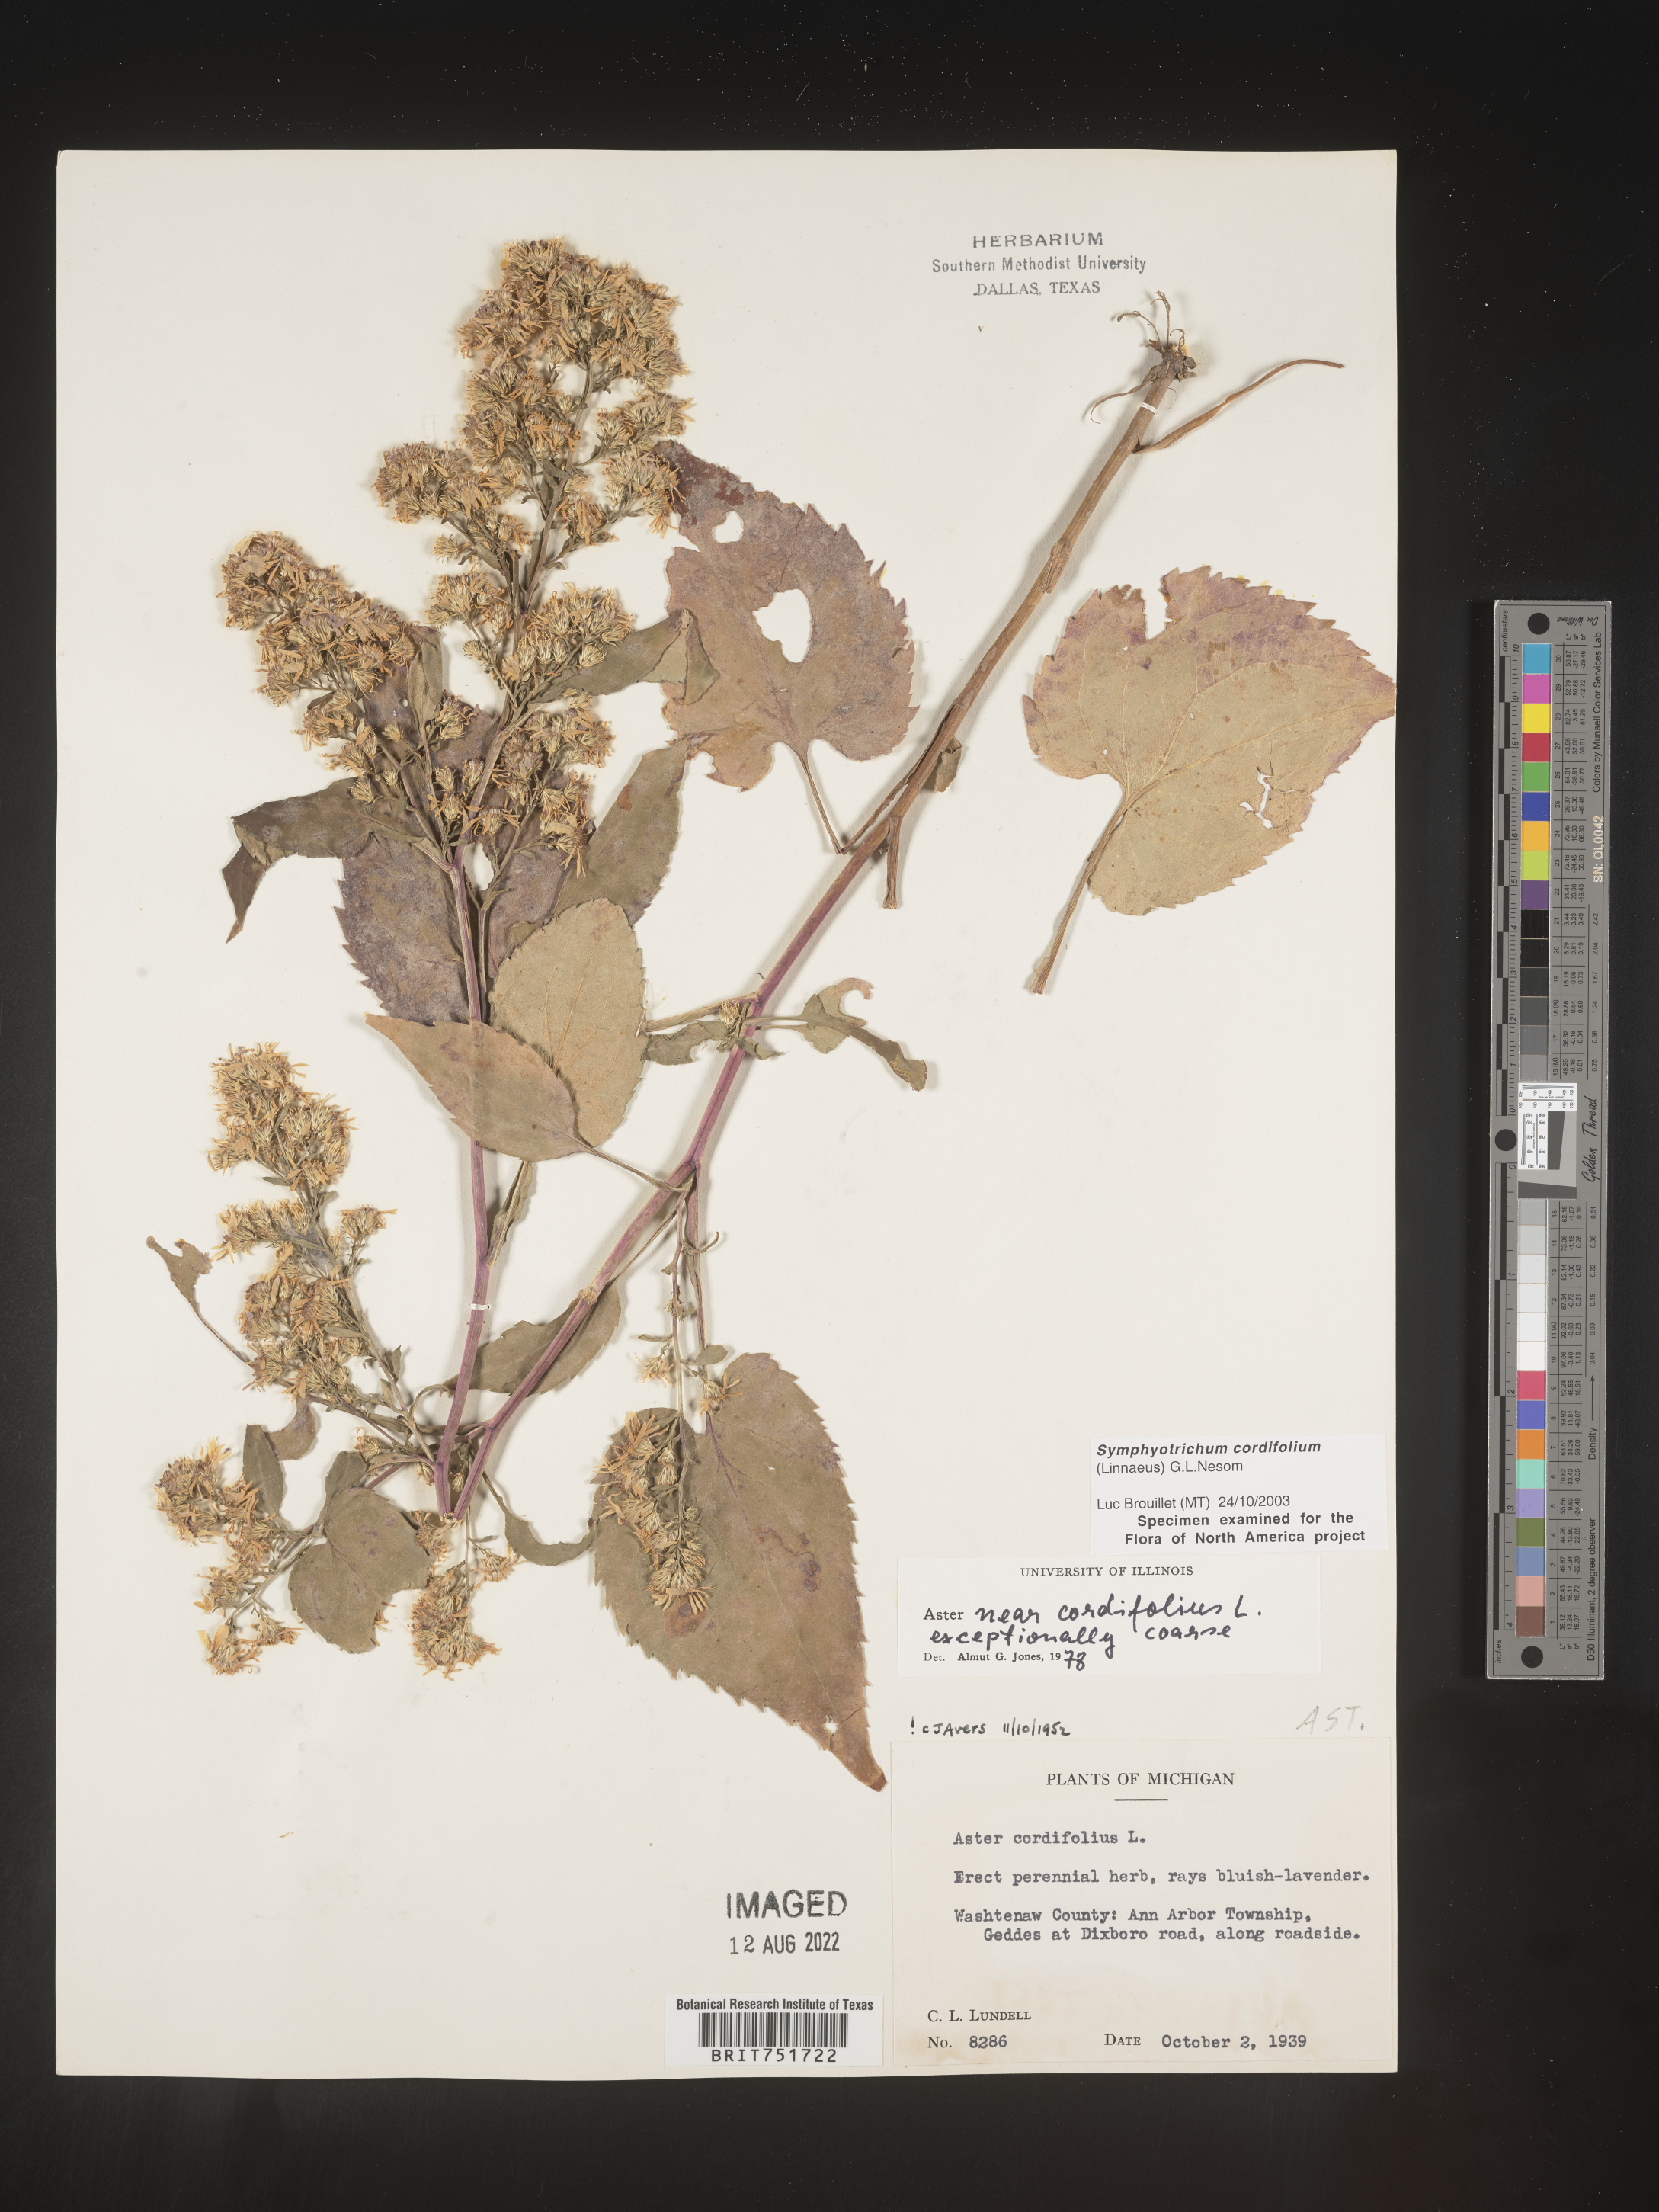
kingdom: Plantae
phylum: Tracheophyta
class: Magnoliopsida
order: Asterales
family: Asteraceae
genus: Symphyotrichum
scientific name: Symphyotrichum cordifolium
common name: Beeweed
